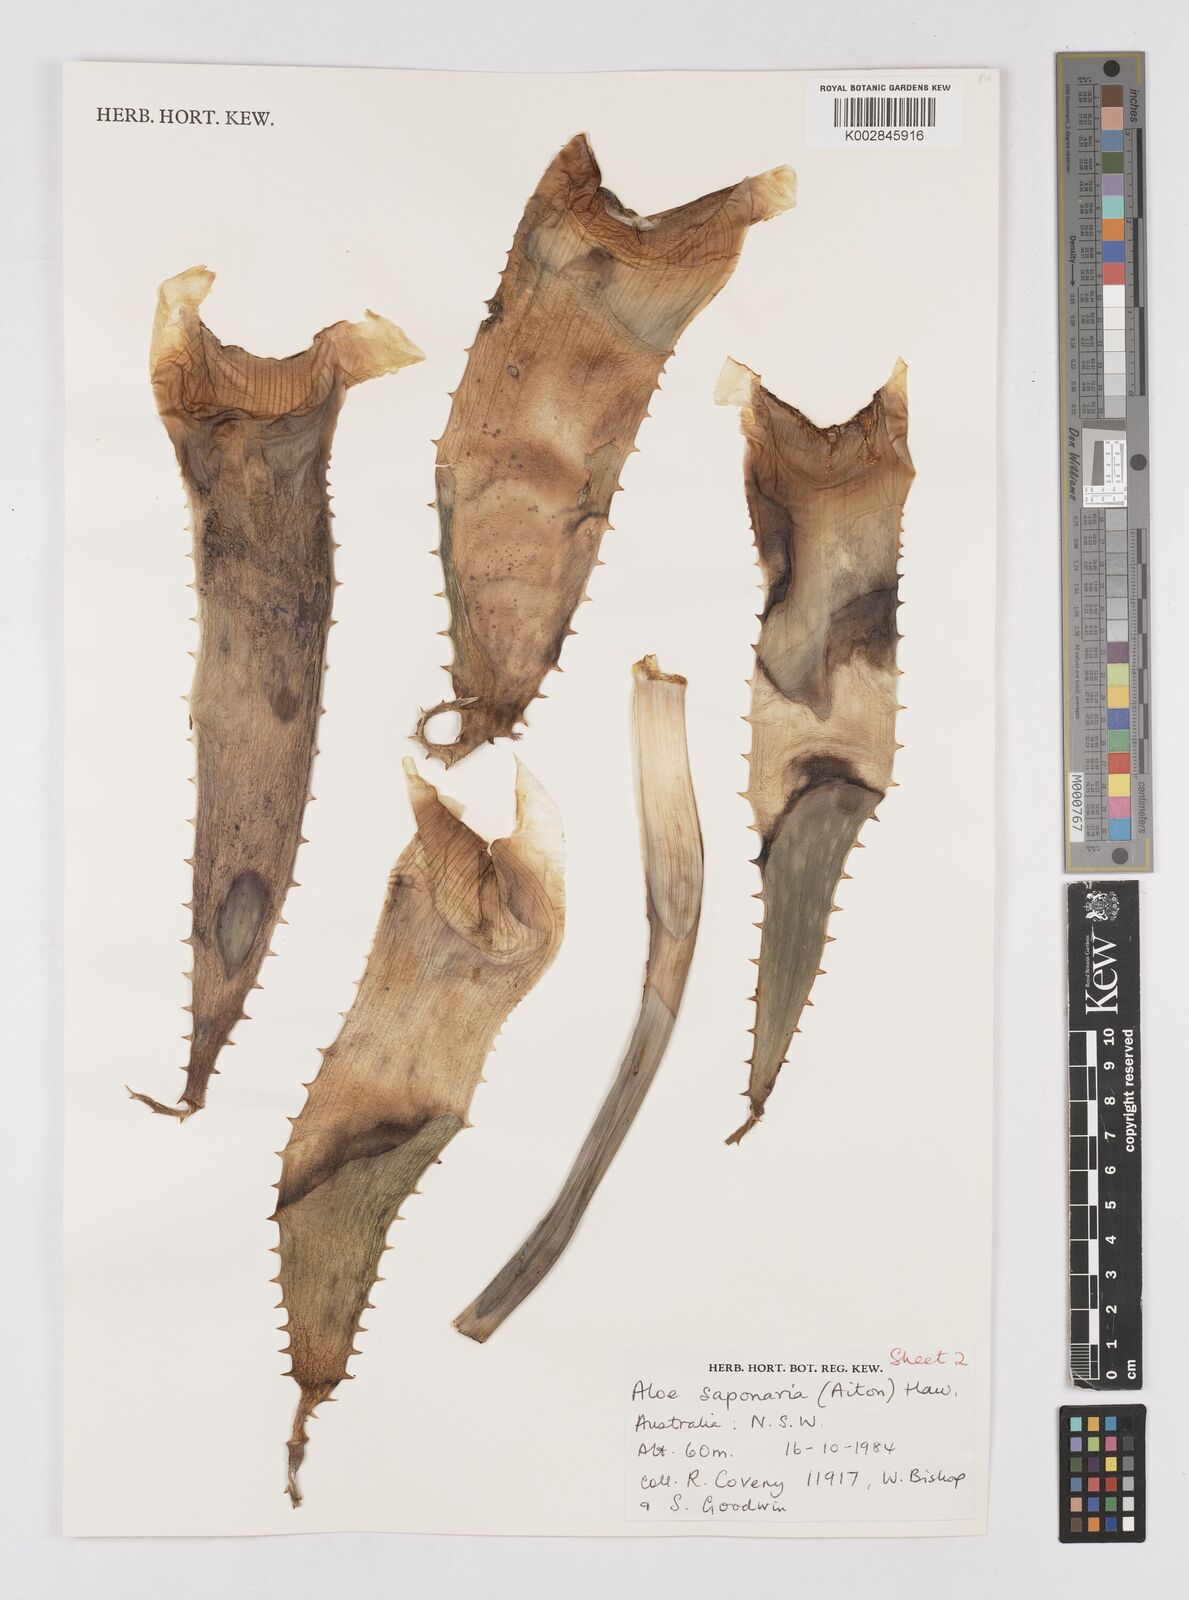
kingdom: Plantae
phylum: Tracheophyta
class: Liliopsida
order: Asparagales
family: Asphodelaceae
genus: Aloe
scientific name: Aloe microstigma
